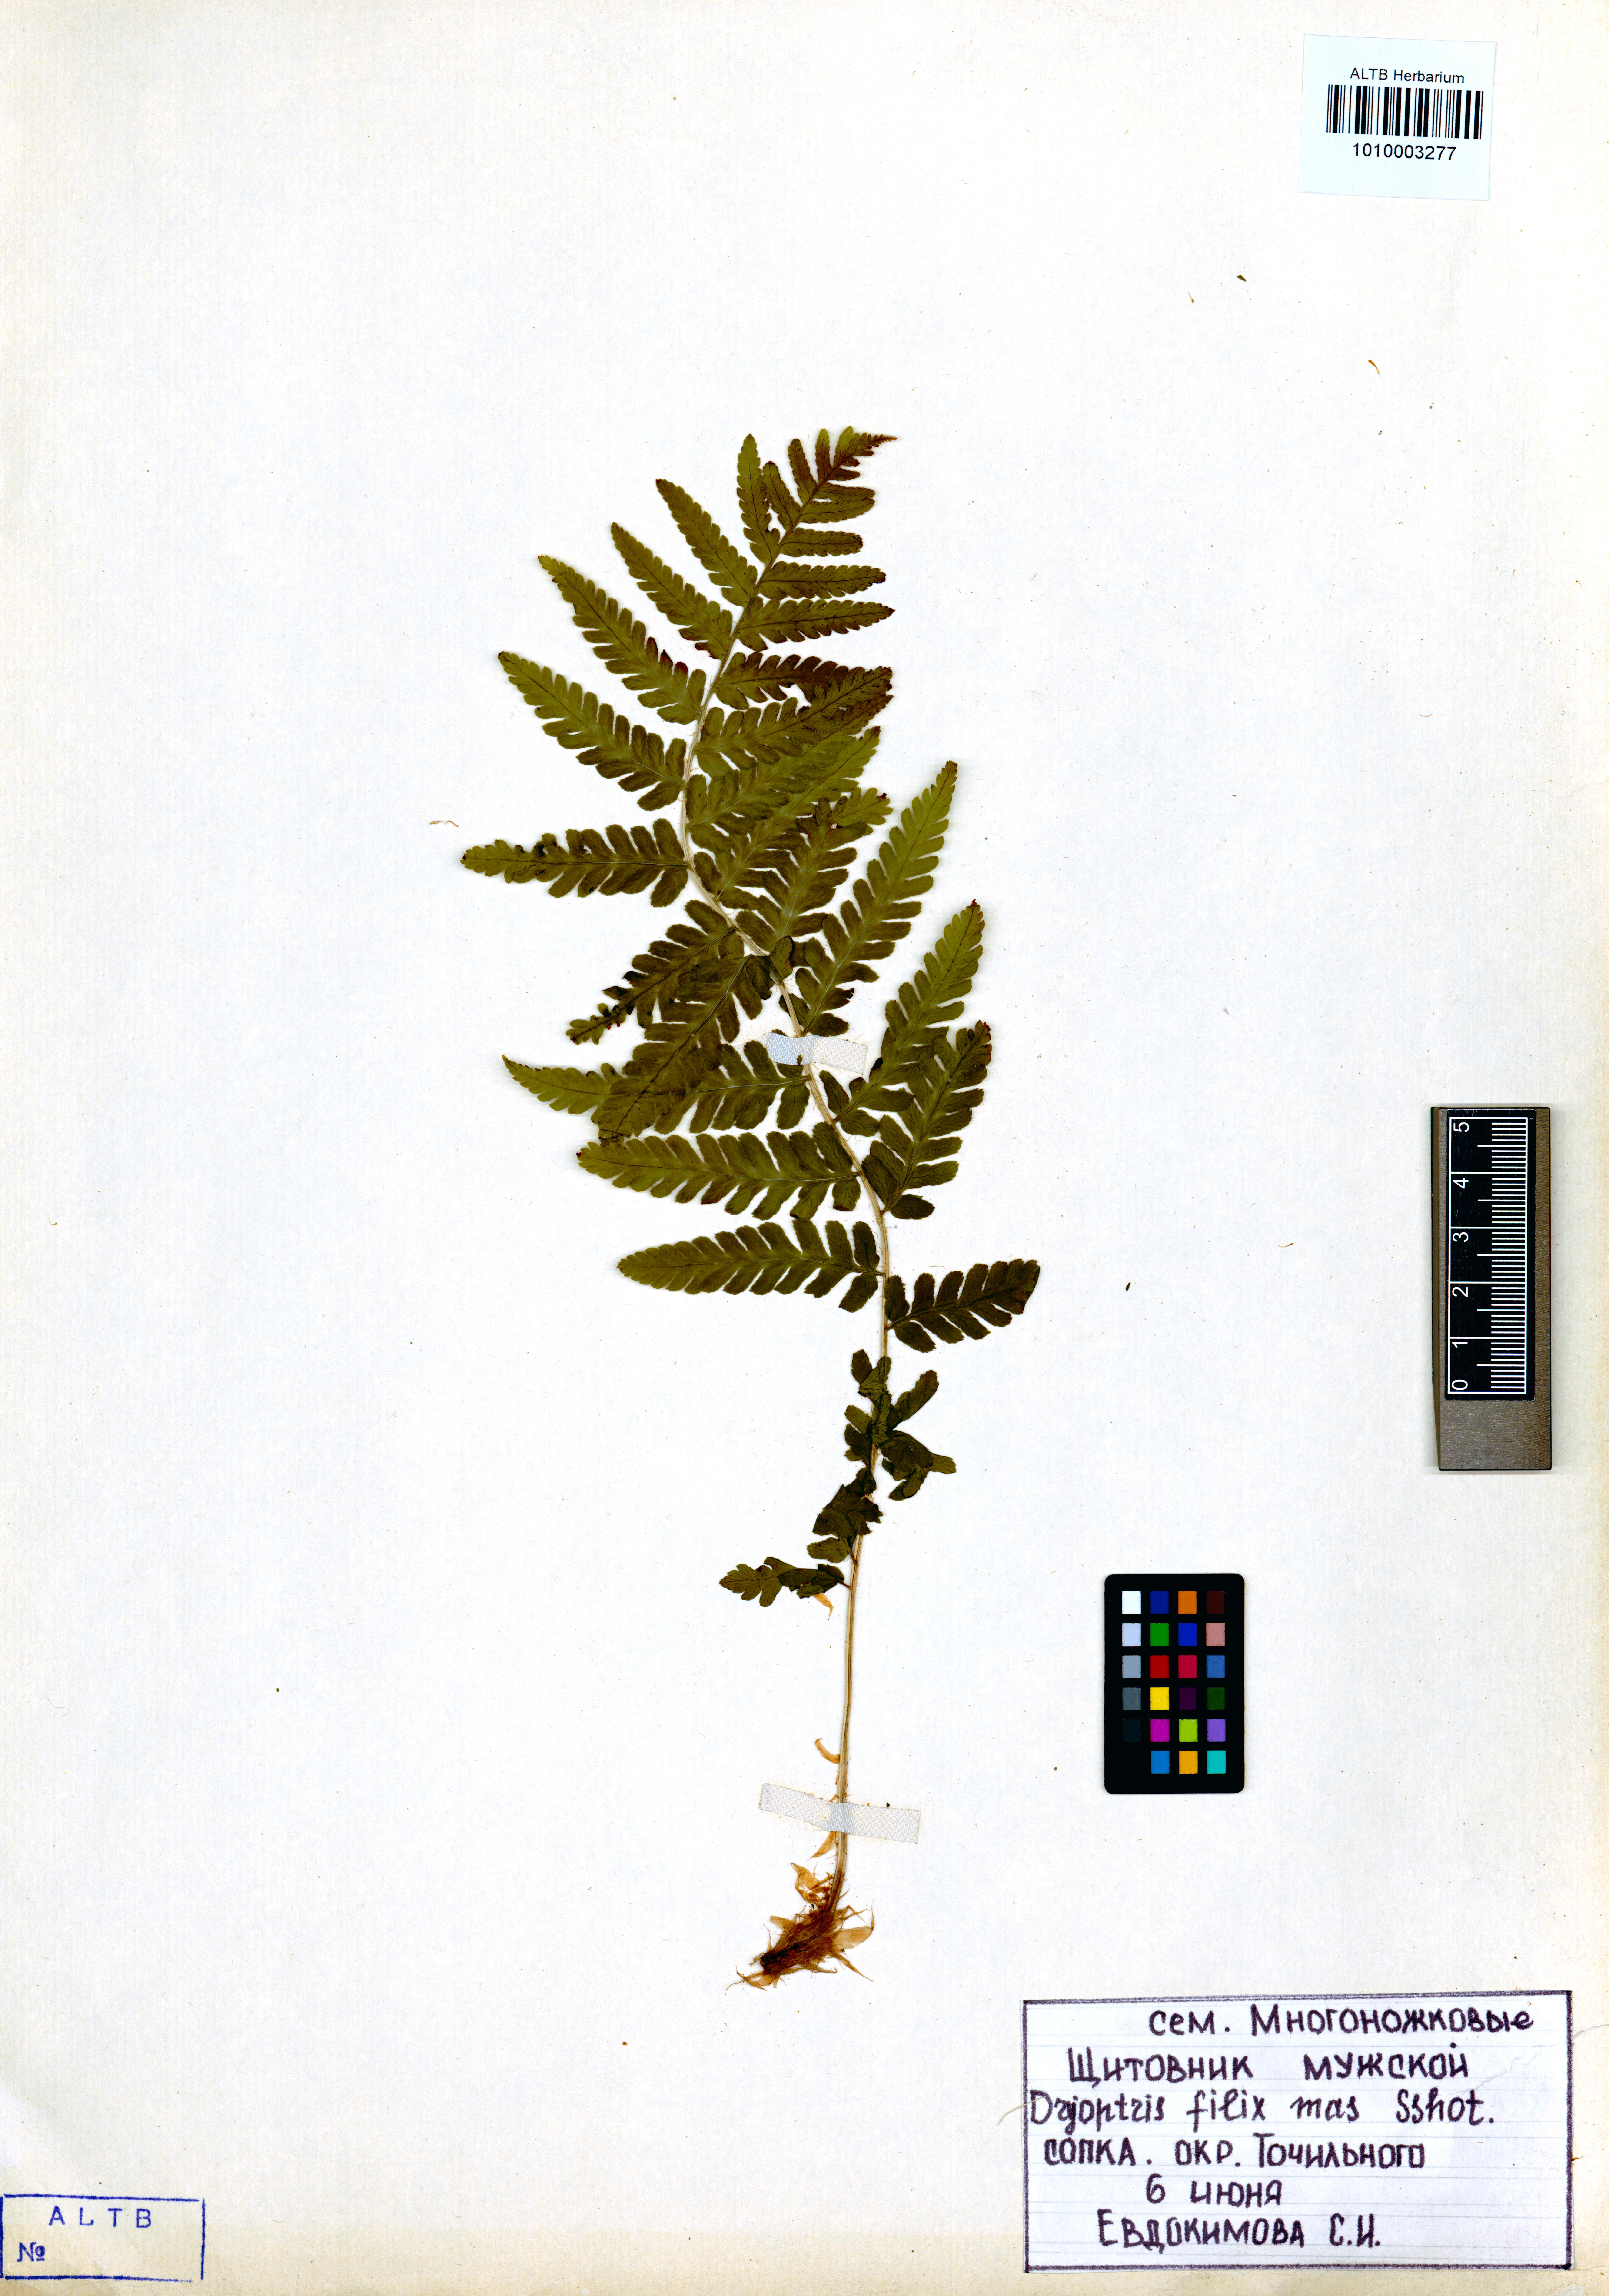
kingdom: Plantae
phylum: Tracheophyta
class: Polypodiopsida
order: Polypodiales
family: Dryopteridaceae
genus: Dryopteris
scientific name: Dryopteris filix-mas
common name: Male fern
